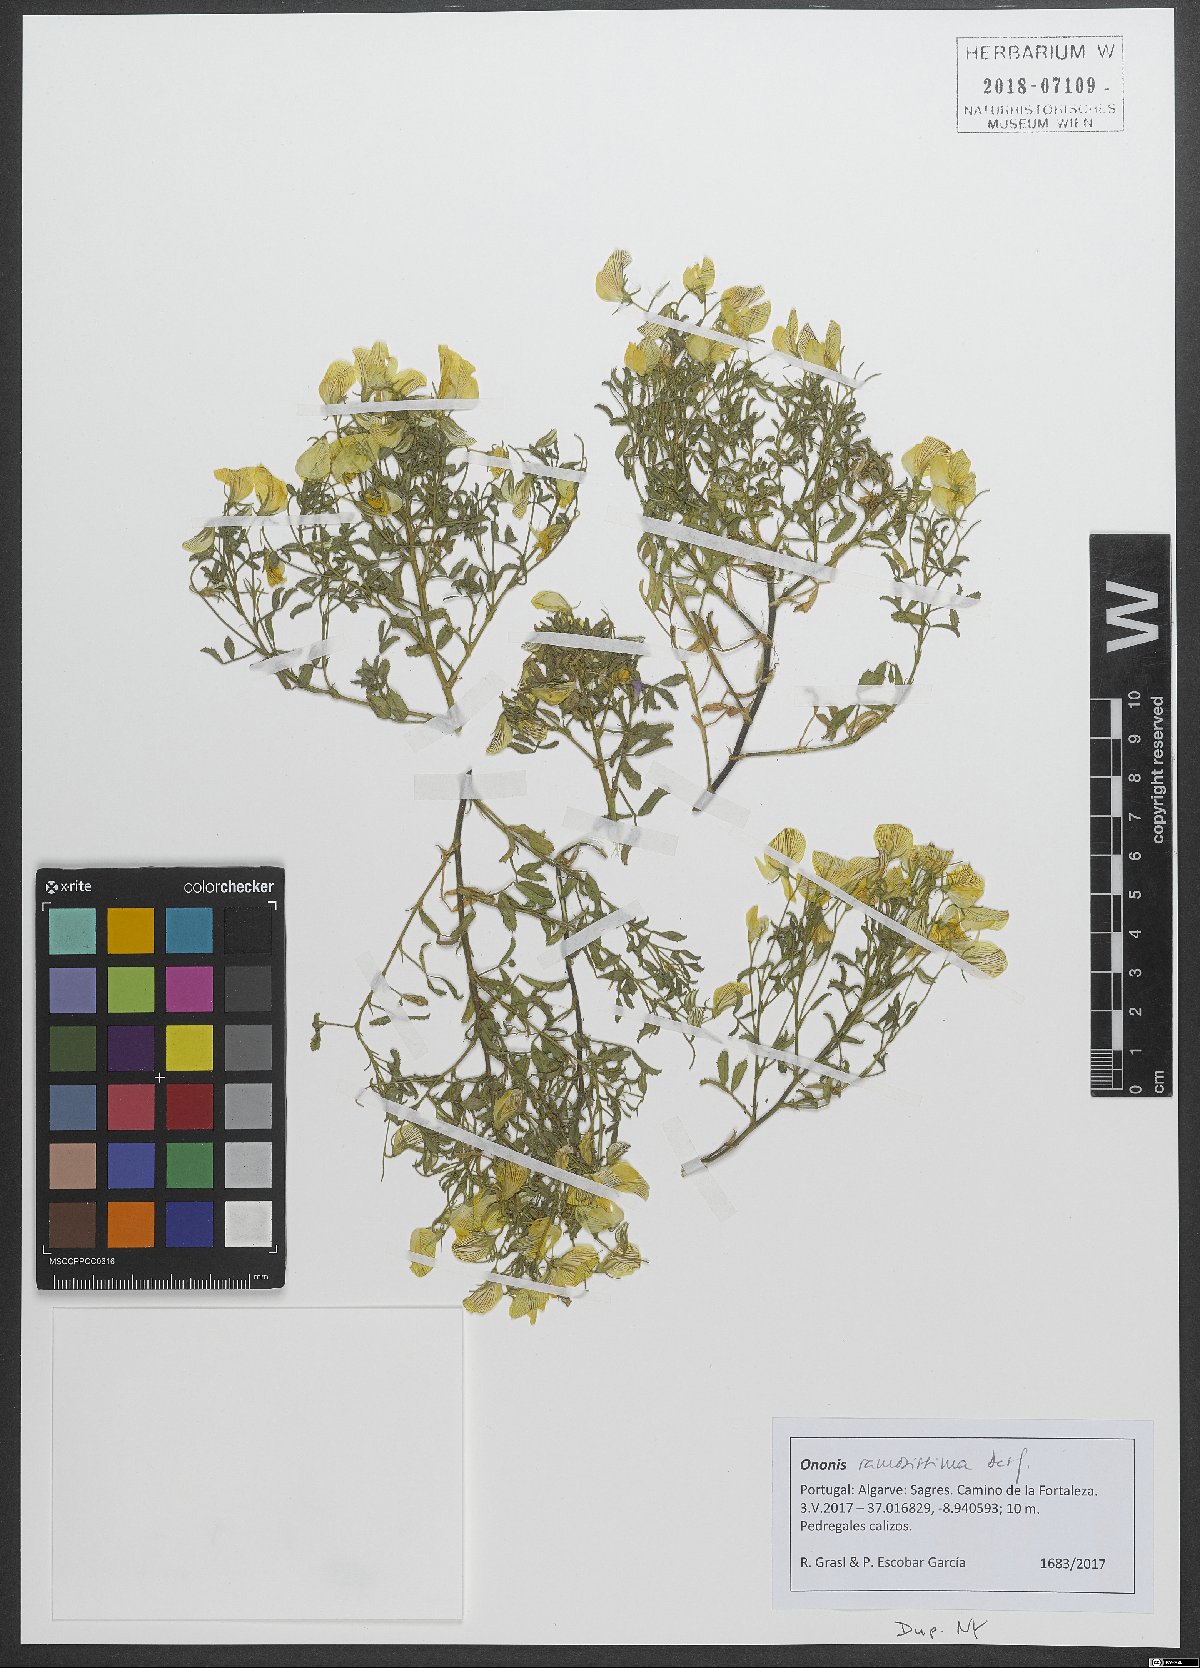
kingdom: Plantae
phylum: Tracheophyta
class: Magnoliopsida
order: Fabales
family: Fabaceae
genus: Ononis
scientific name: Ononis ramosissima
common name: Bush restharrow
